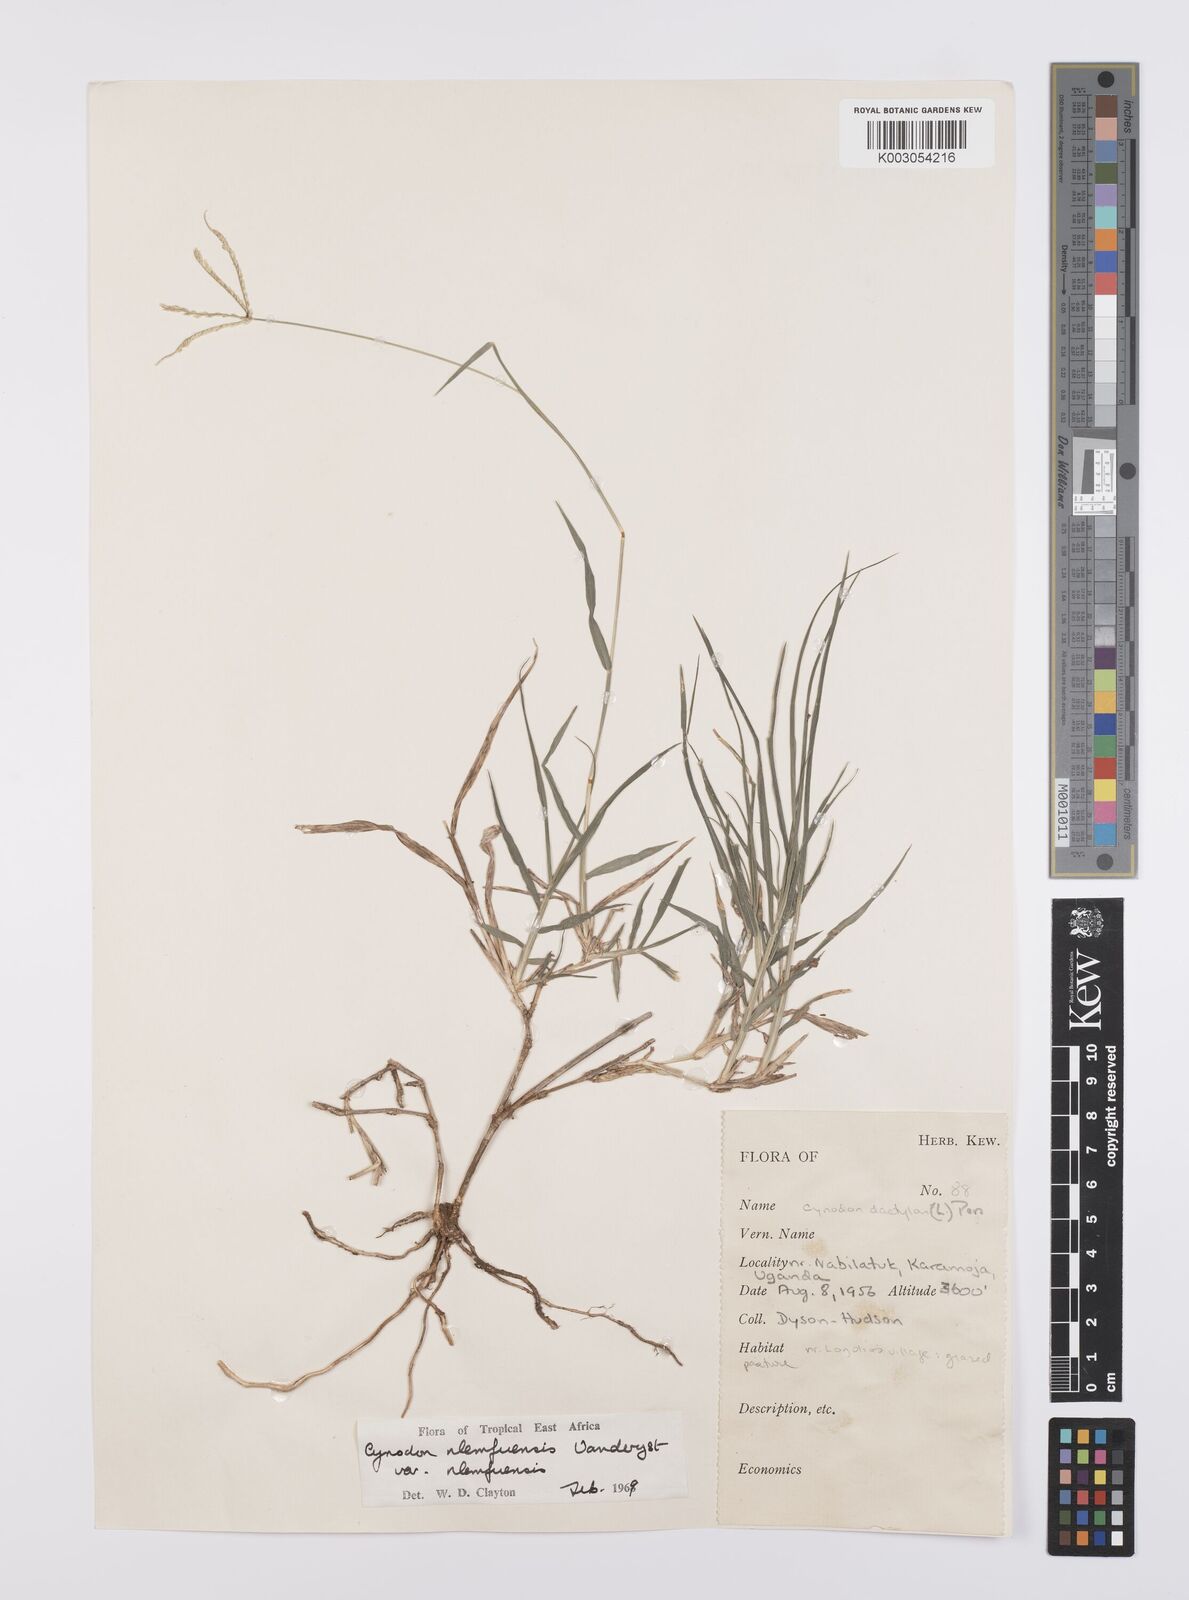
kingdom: Plantae
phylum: Tracheophyta
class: Liliopsida
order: Poales
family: Poaceae
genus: Cynodon
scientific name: Cynodon nlemfuensis
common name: African bermudagrass
